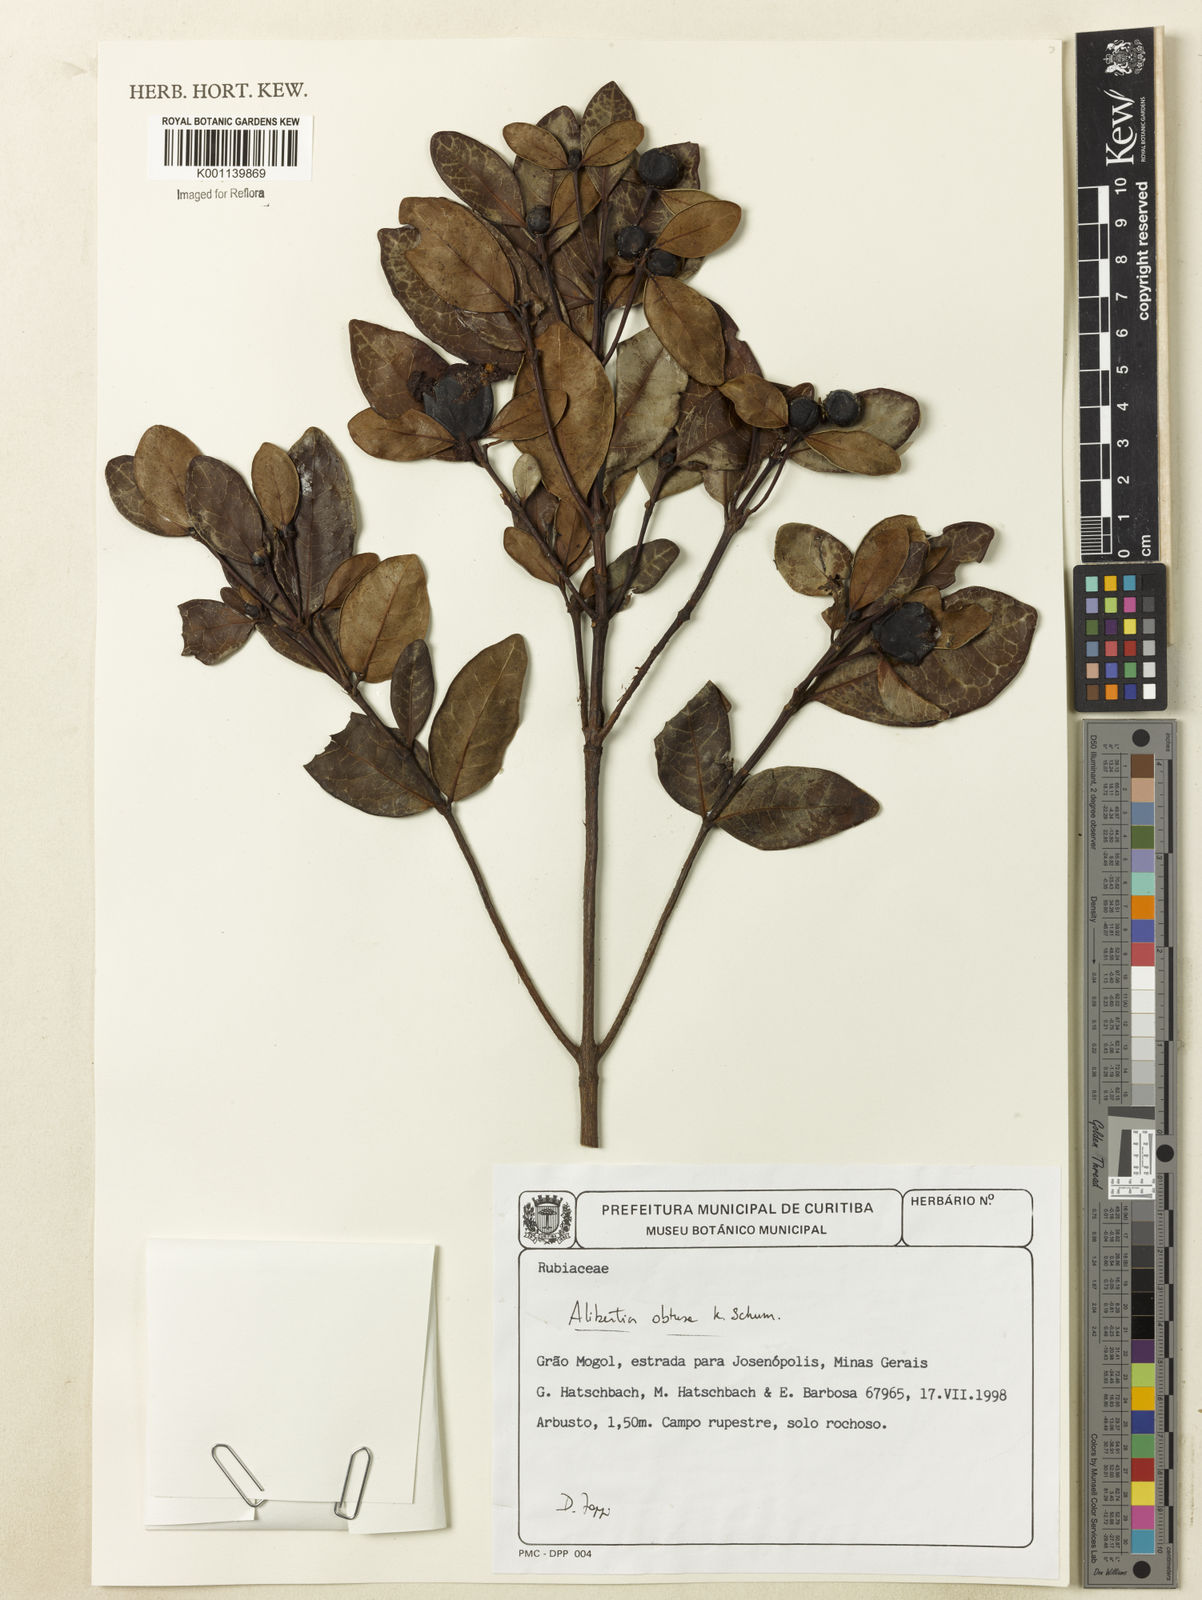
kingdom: Plantae
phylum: Tracheophyta
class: Magnoliopsida
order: Gentianales
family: Rubiaceae
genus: Cordiera
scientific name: Cordiera obtusa
